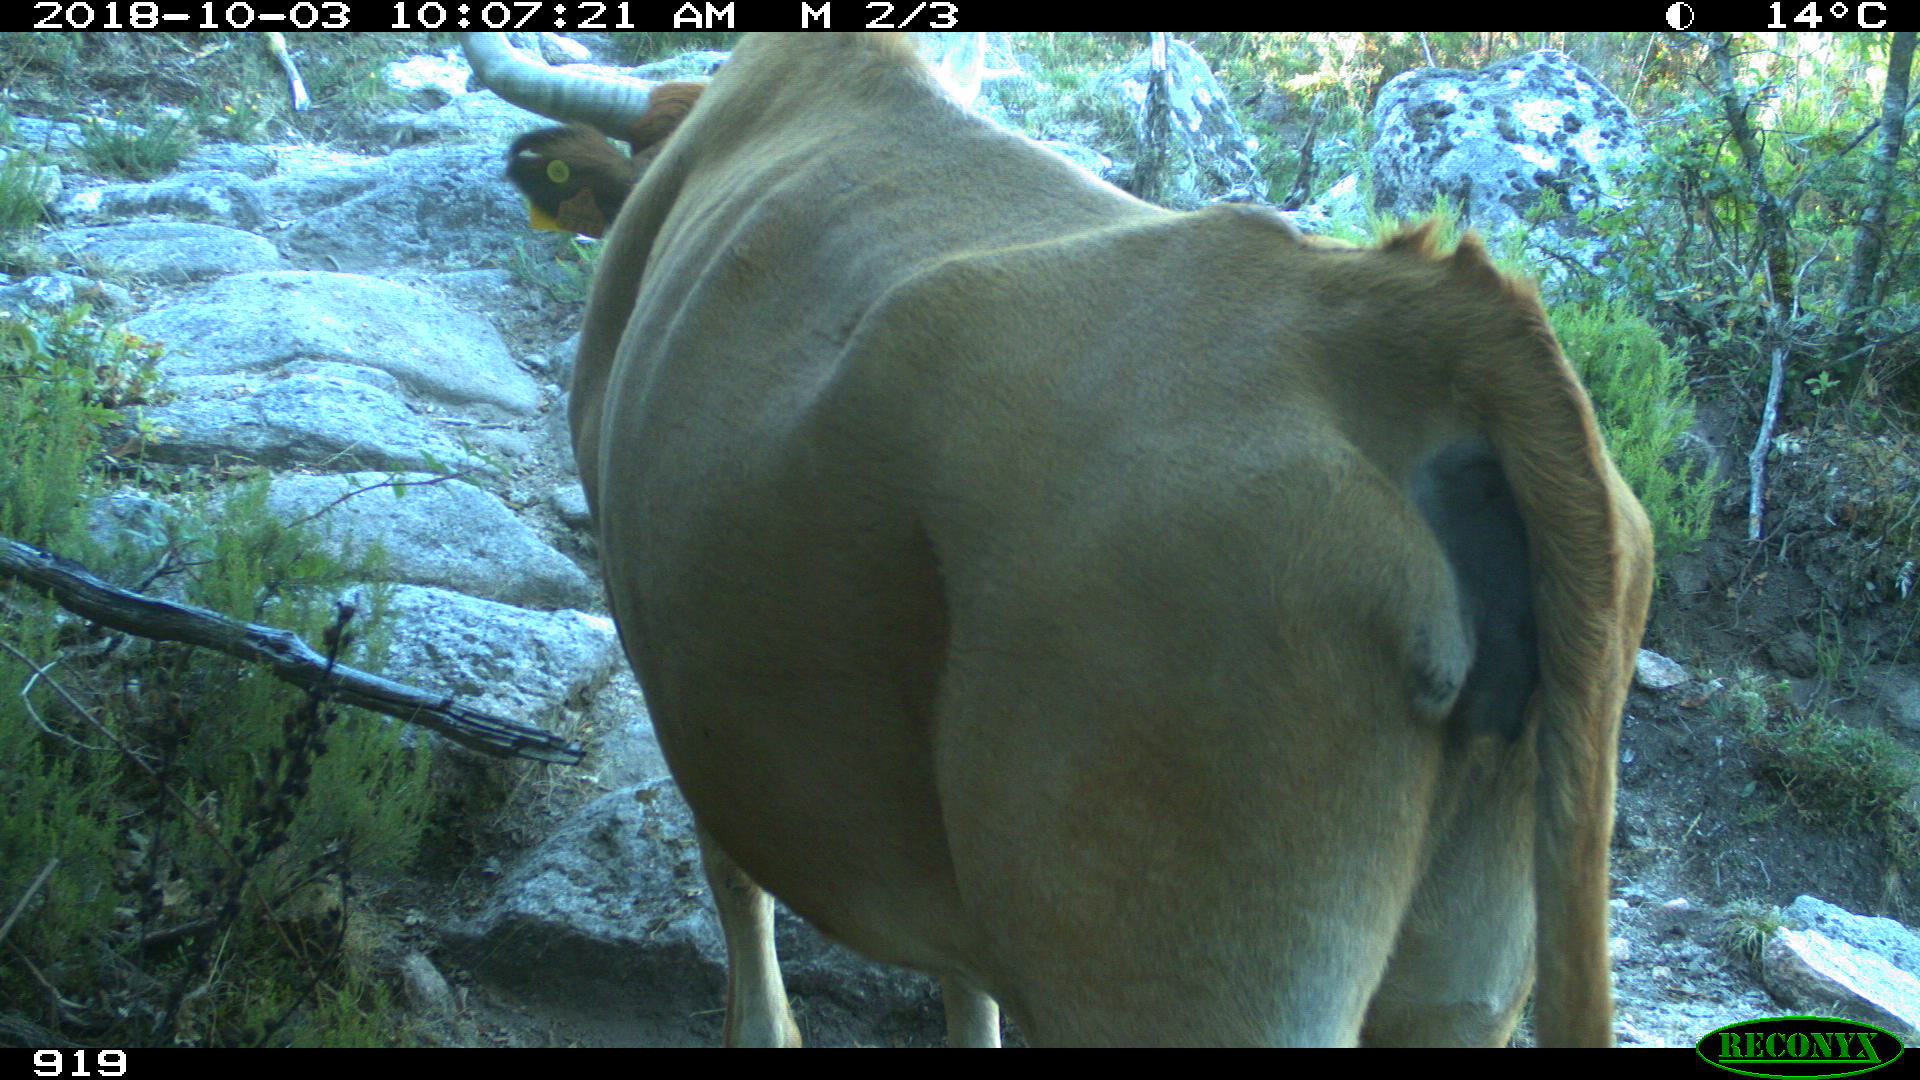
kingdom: Animalia
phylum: Chordata
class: Mammalia
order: Artiodactyla
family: Bovidae
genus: Bos
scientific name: Bos taurus
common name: Domesticated cattle
